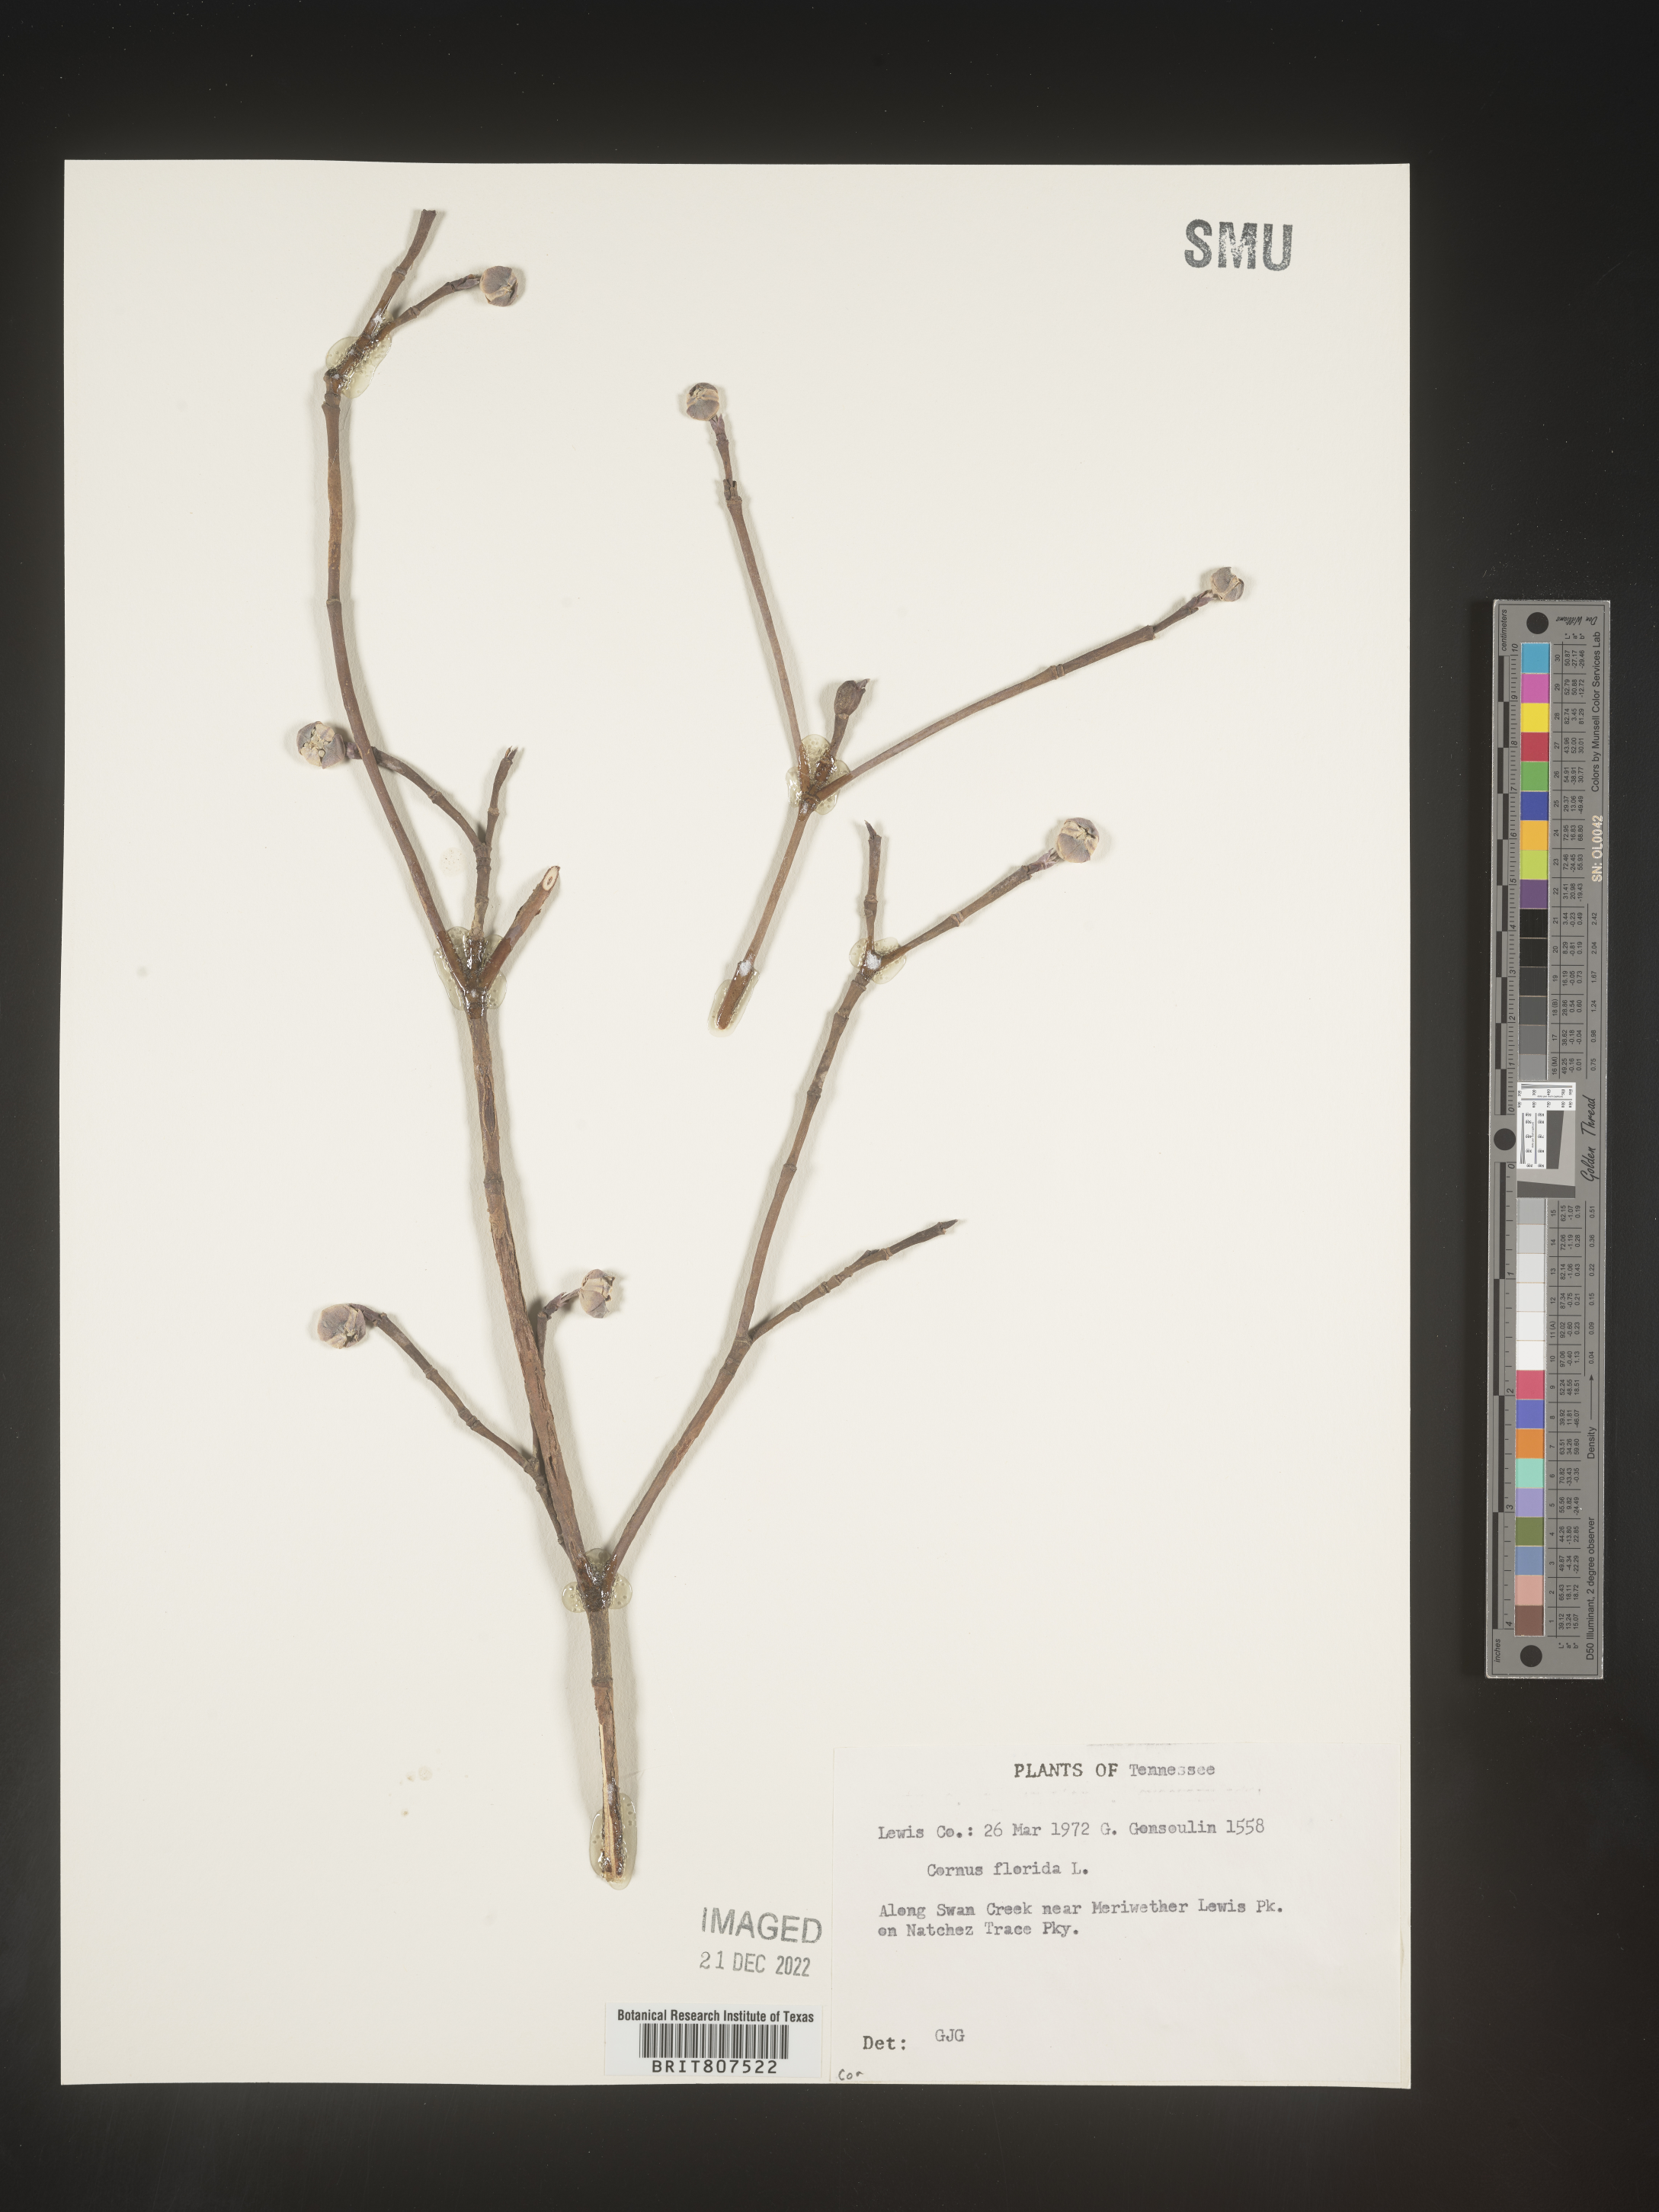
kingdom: Plantae
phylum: Tracheophyta
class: Magnoliopsida
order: Cornales
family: Cornaceae
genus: Cornus
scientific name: Cornus florida
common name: Flowering dogwood
